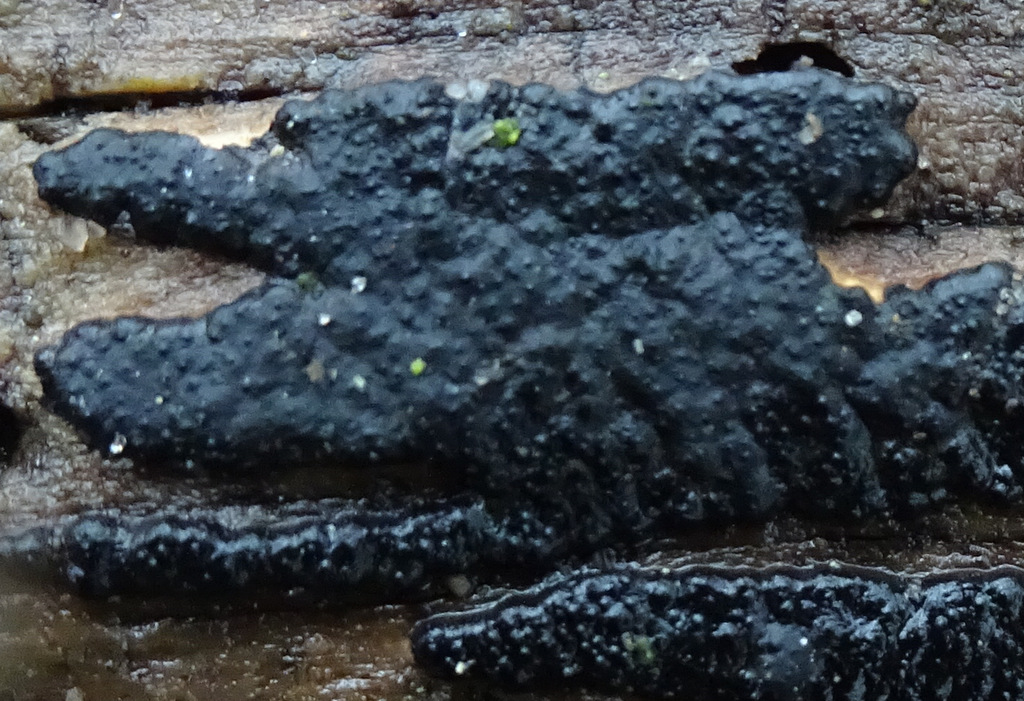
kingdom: Fungi
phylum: Ascomycota
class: Sordariomycetes
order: Xylariales
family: Xylariaceae
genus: Nemania
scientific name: Nemania
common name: kuldyne
